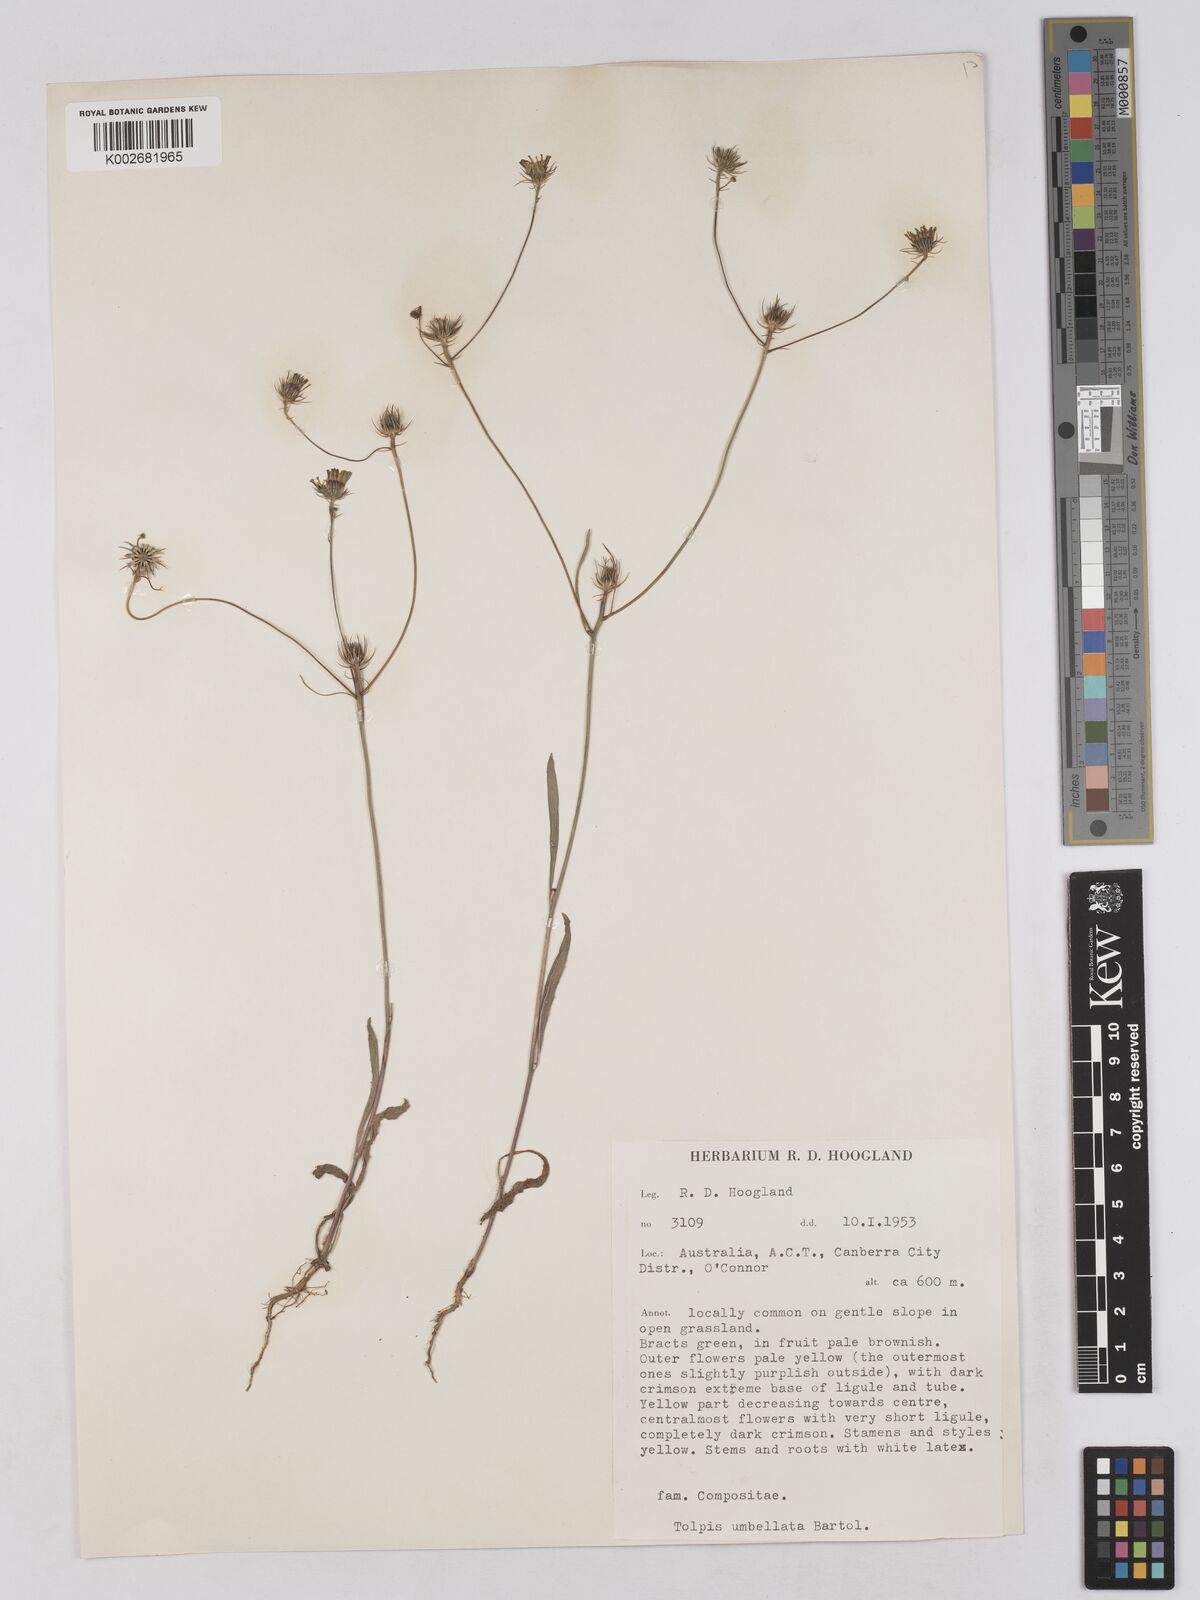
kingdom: Plantae
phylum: Tracheophyta
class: Magnoliopsida
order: Asterales
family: Asteraceae
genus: Tolpis
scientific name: Tolpis umbellata
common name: Yellow hawkweed
